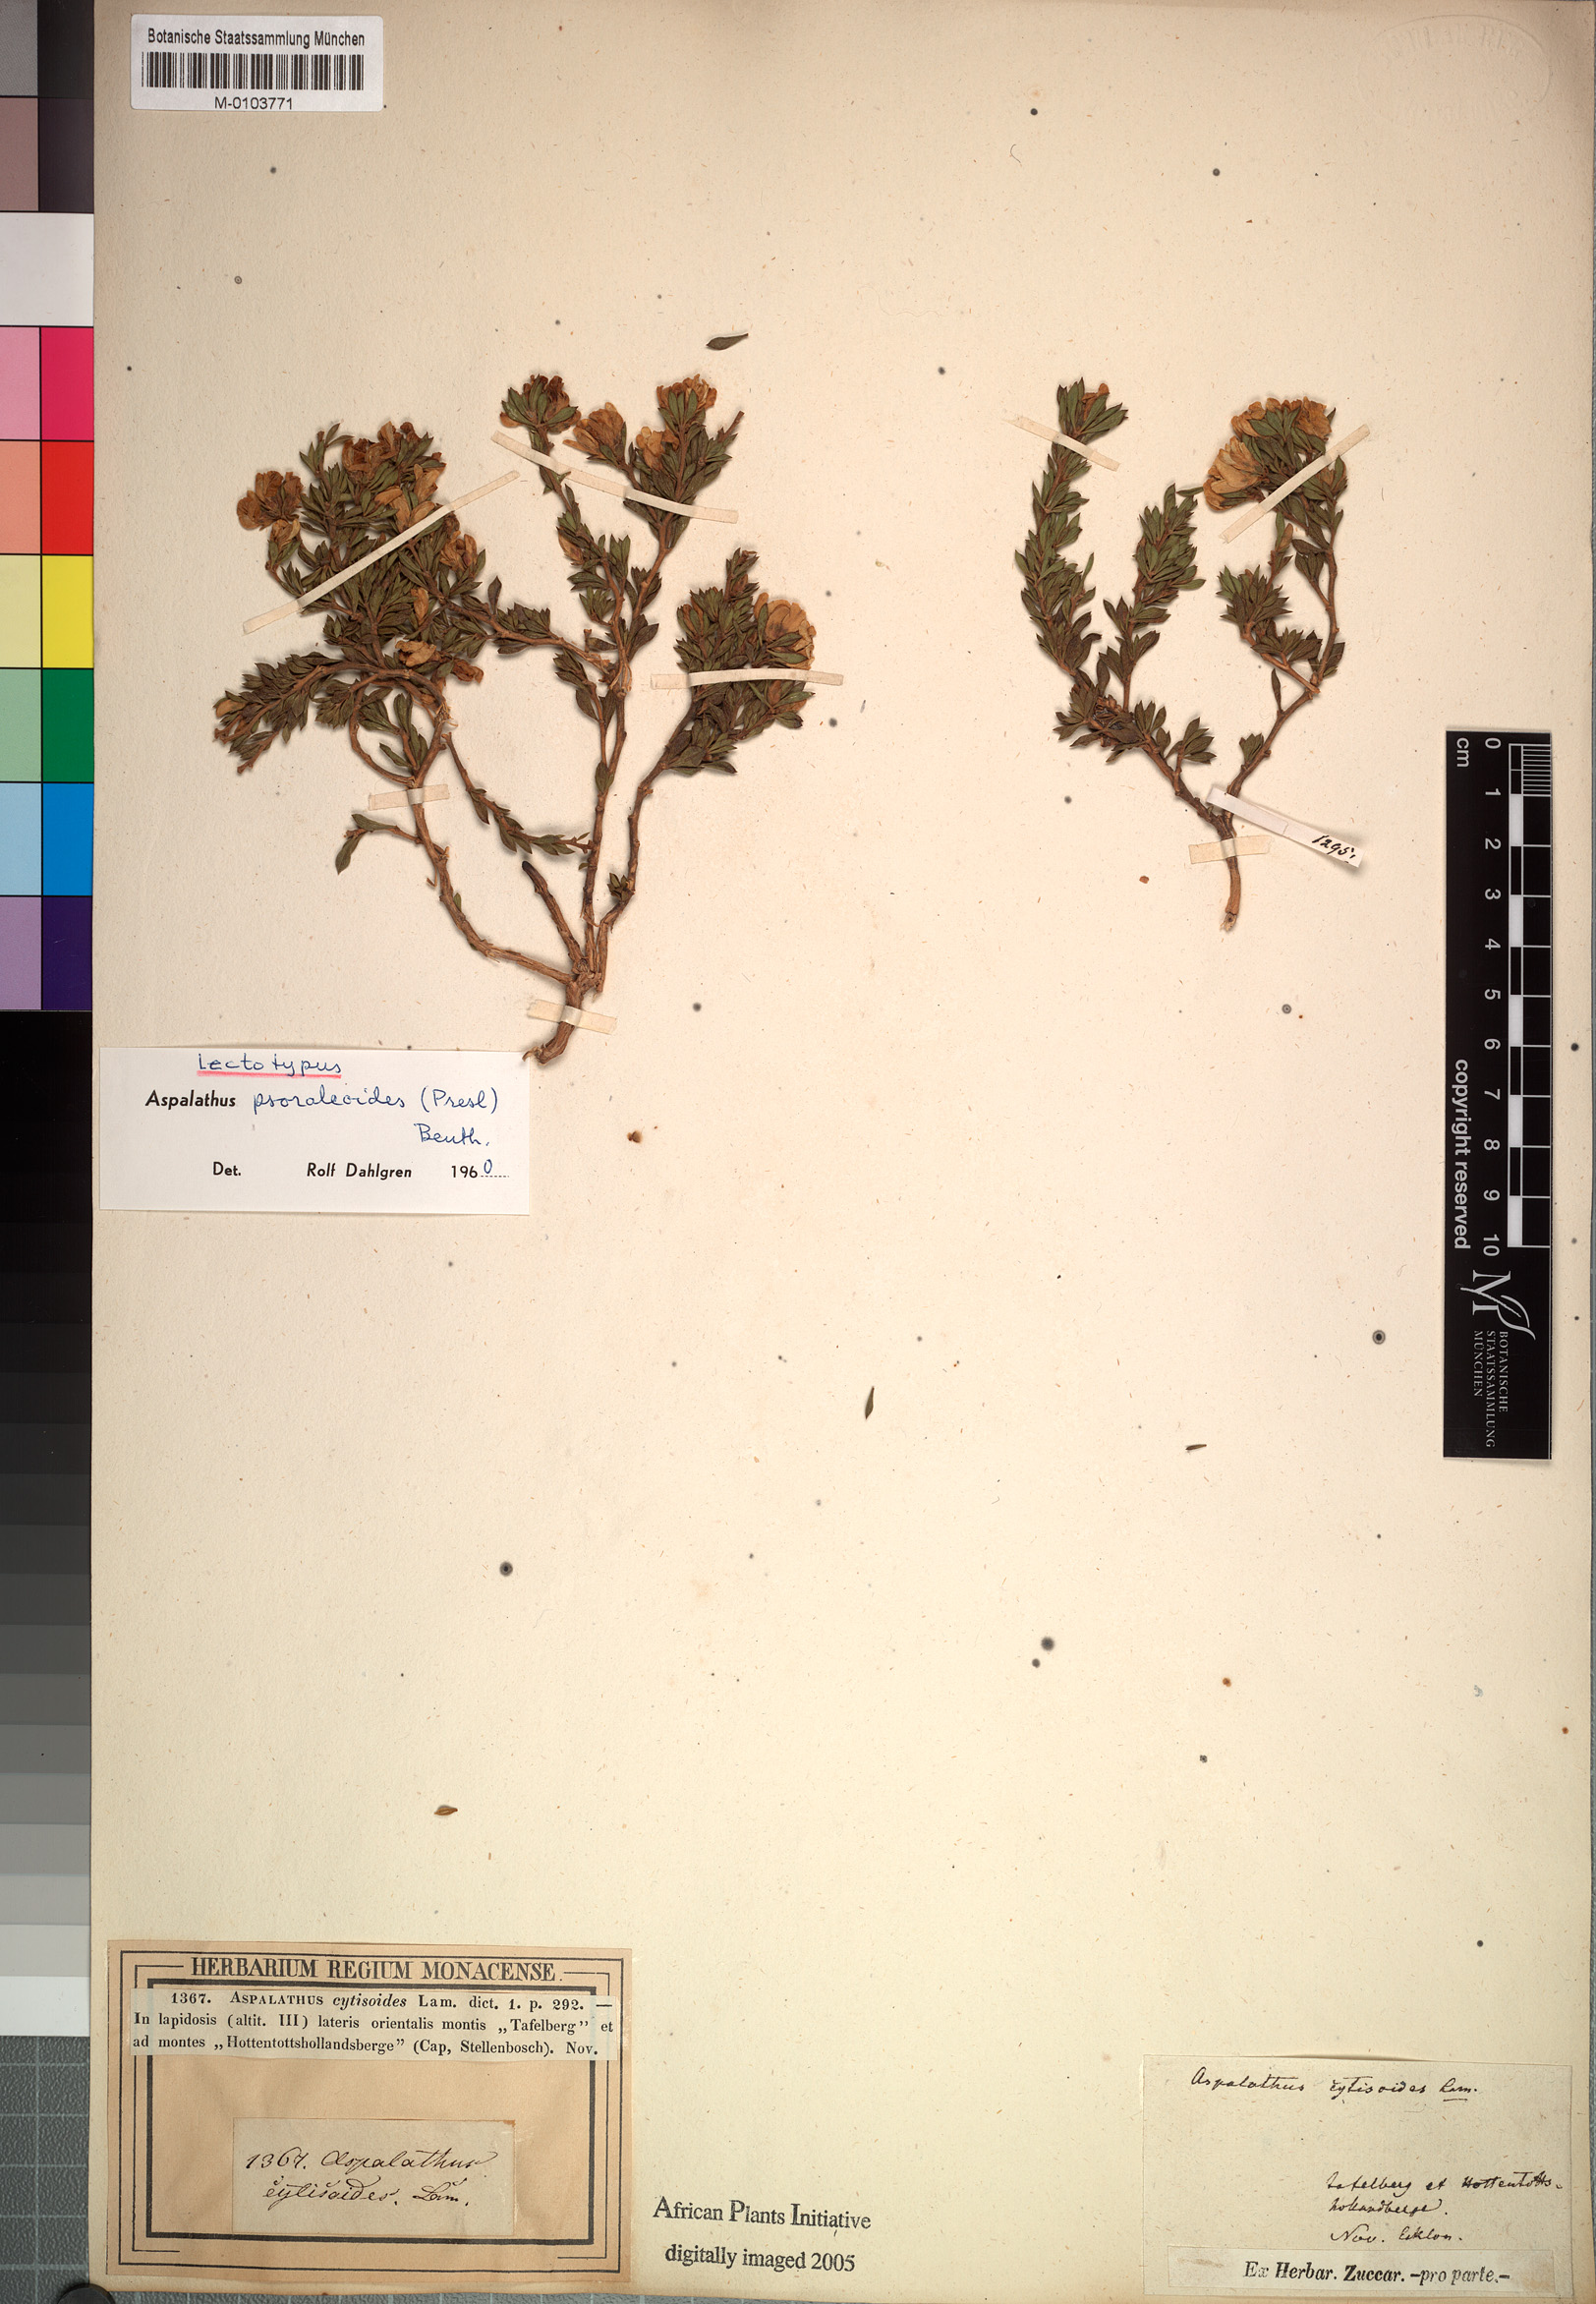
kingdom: Plantae
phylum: Tracheophyta
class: Magnoliopsida
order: Fabales
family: Fabaceae
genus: Aspalathus
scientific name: Aspalathus psoraleoides
